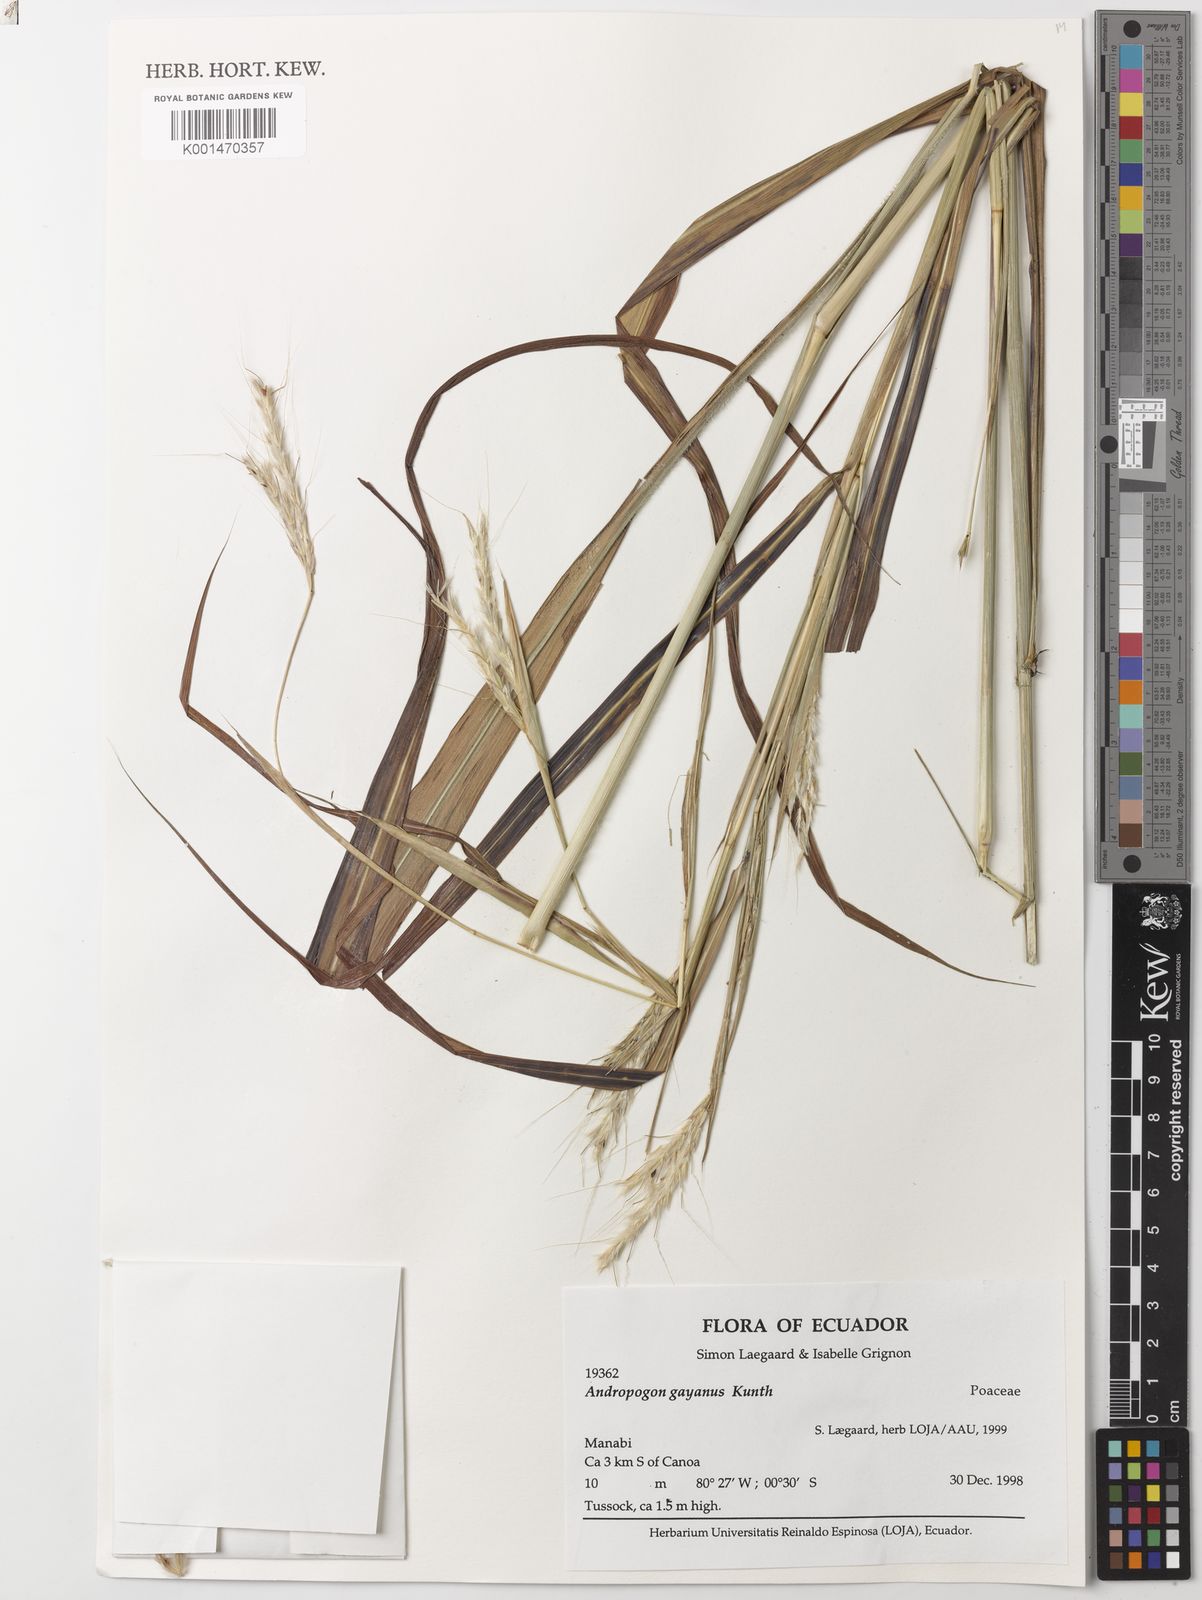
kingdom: Plantae
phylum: Tracheophyta
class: Liliopsida
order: Poales
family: Poaceae
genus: Andropogon
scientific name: Andropogon gayanus
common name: Tambuki grass
